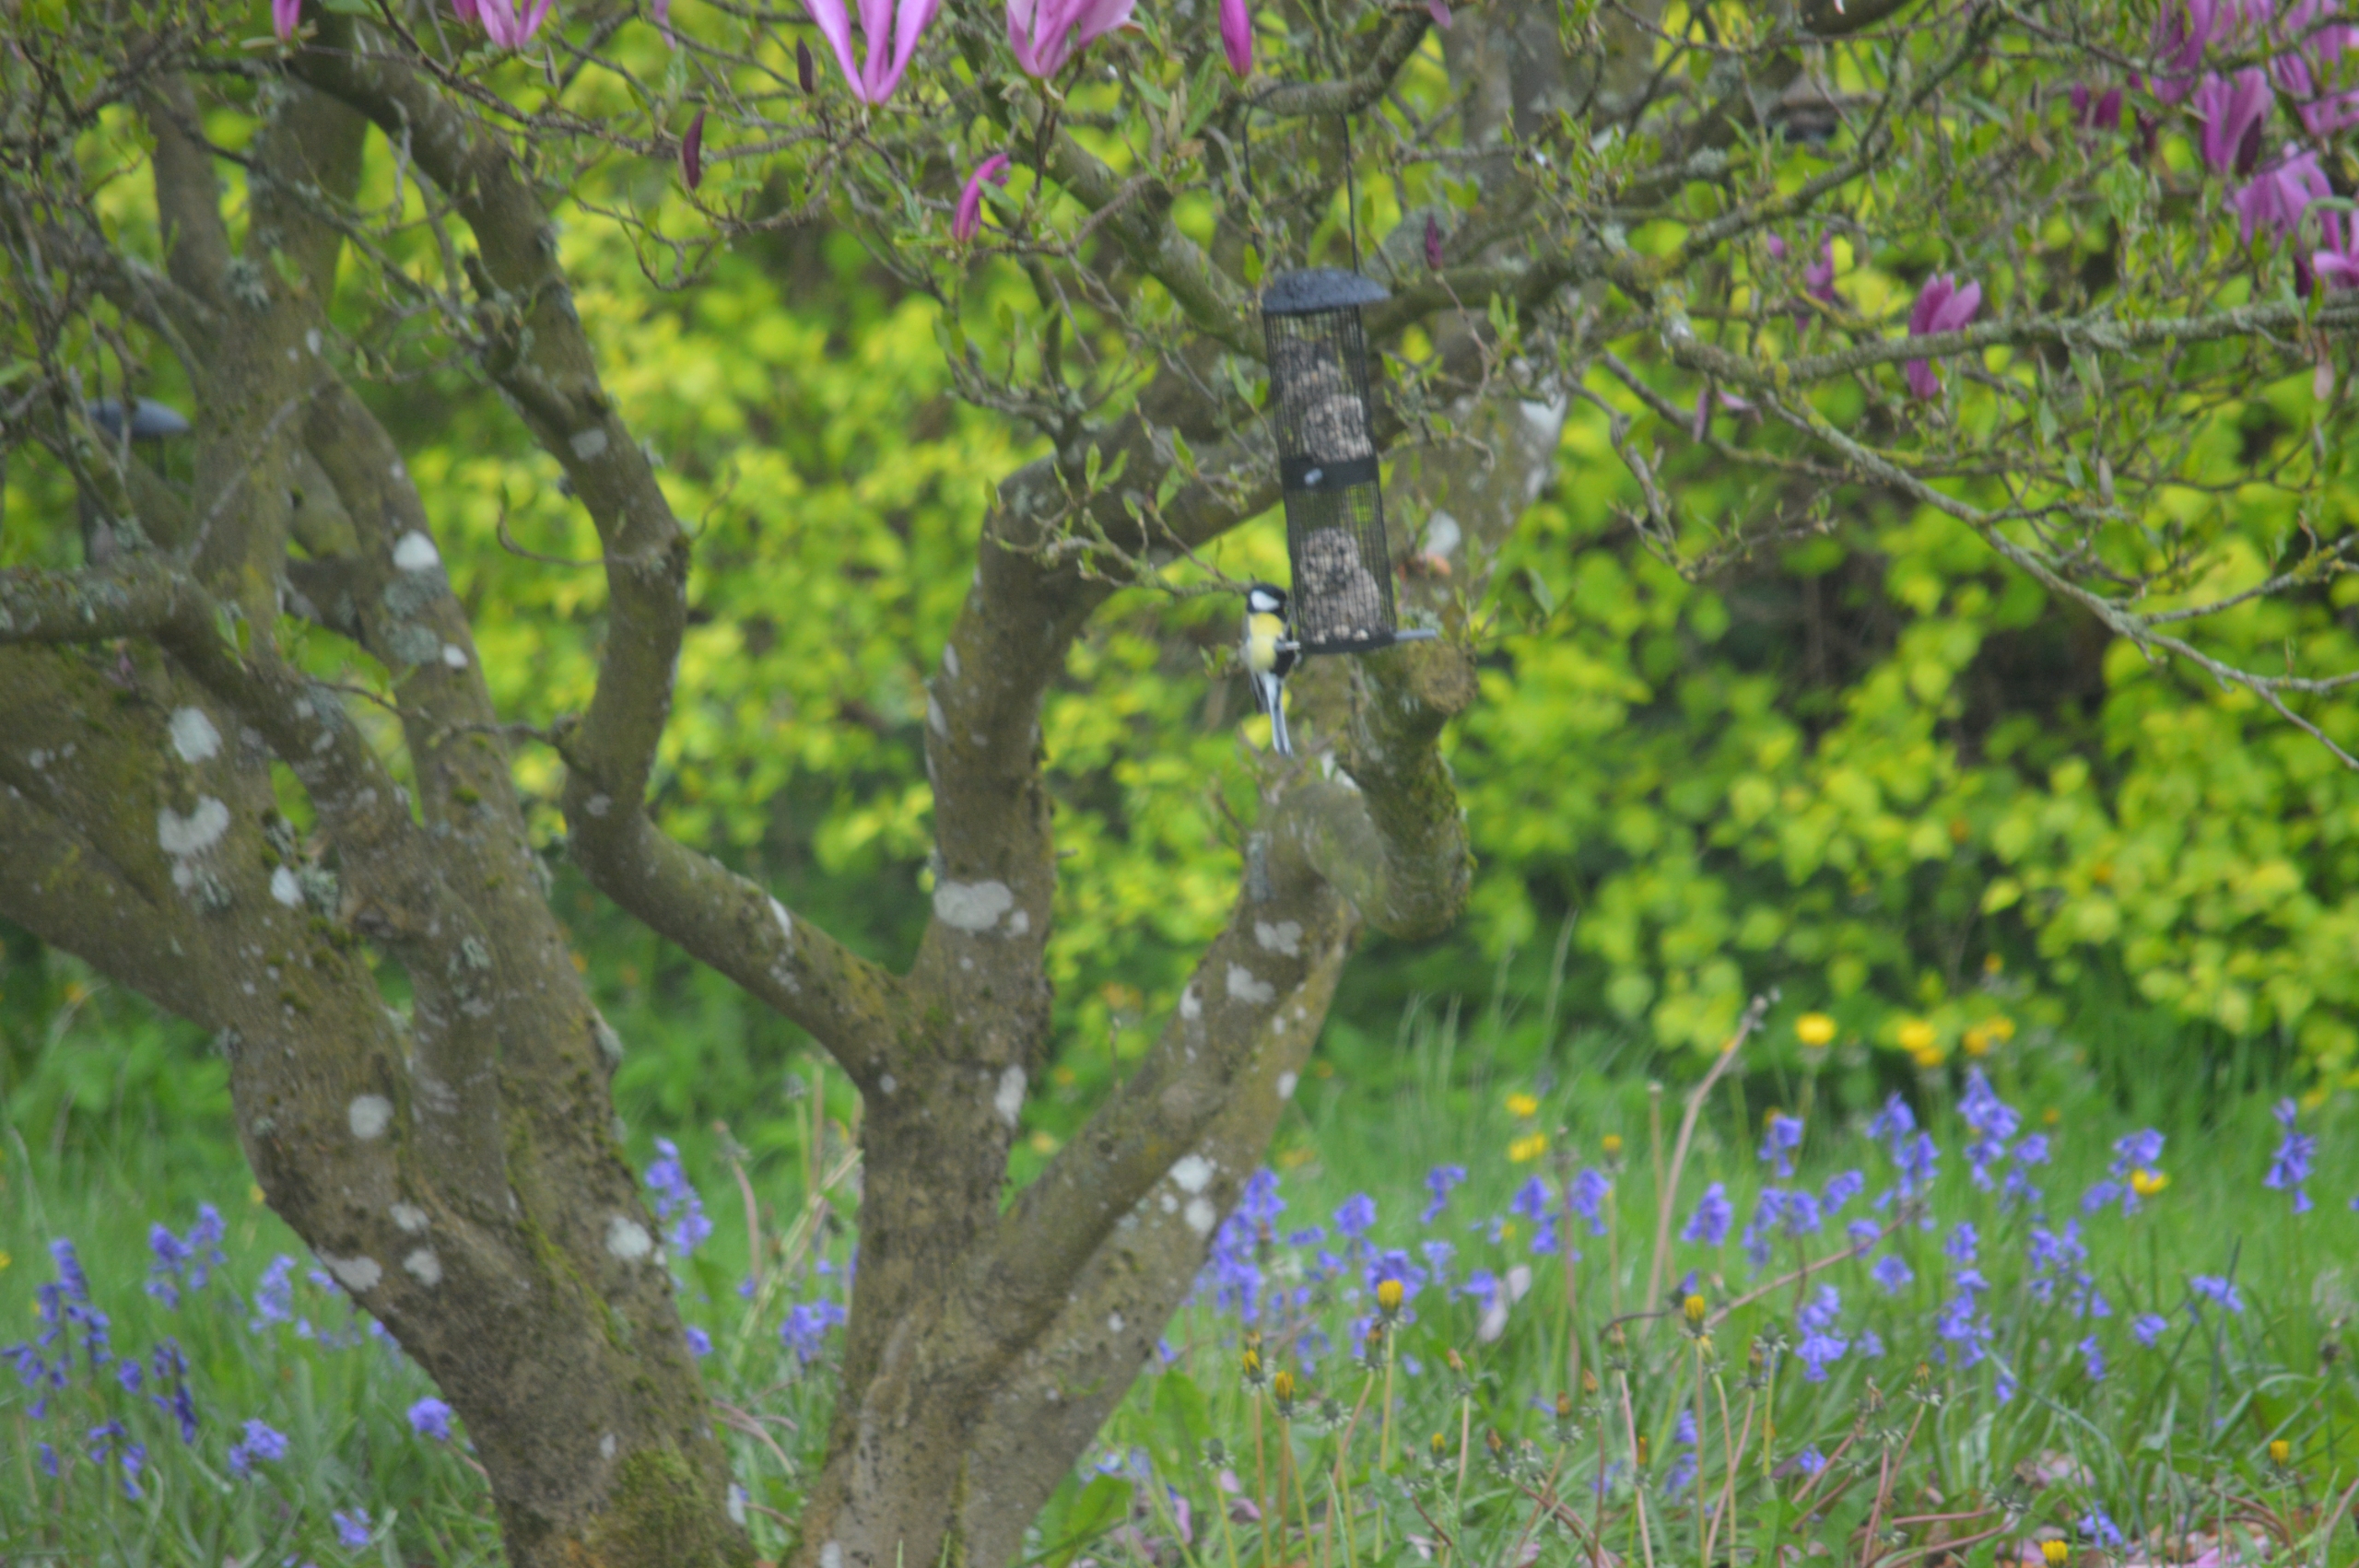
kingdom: Animalia
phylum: Chordata
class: Aves
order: Passeriformes
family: Paridae
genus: Parus
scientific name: Parus major
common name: Musvit
